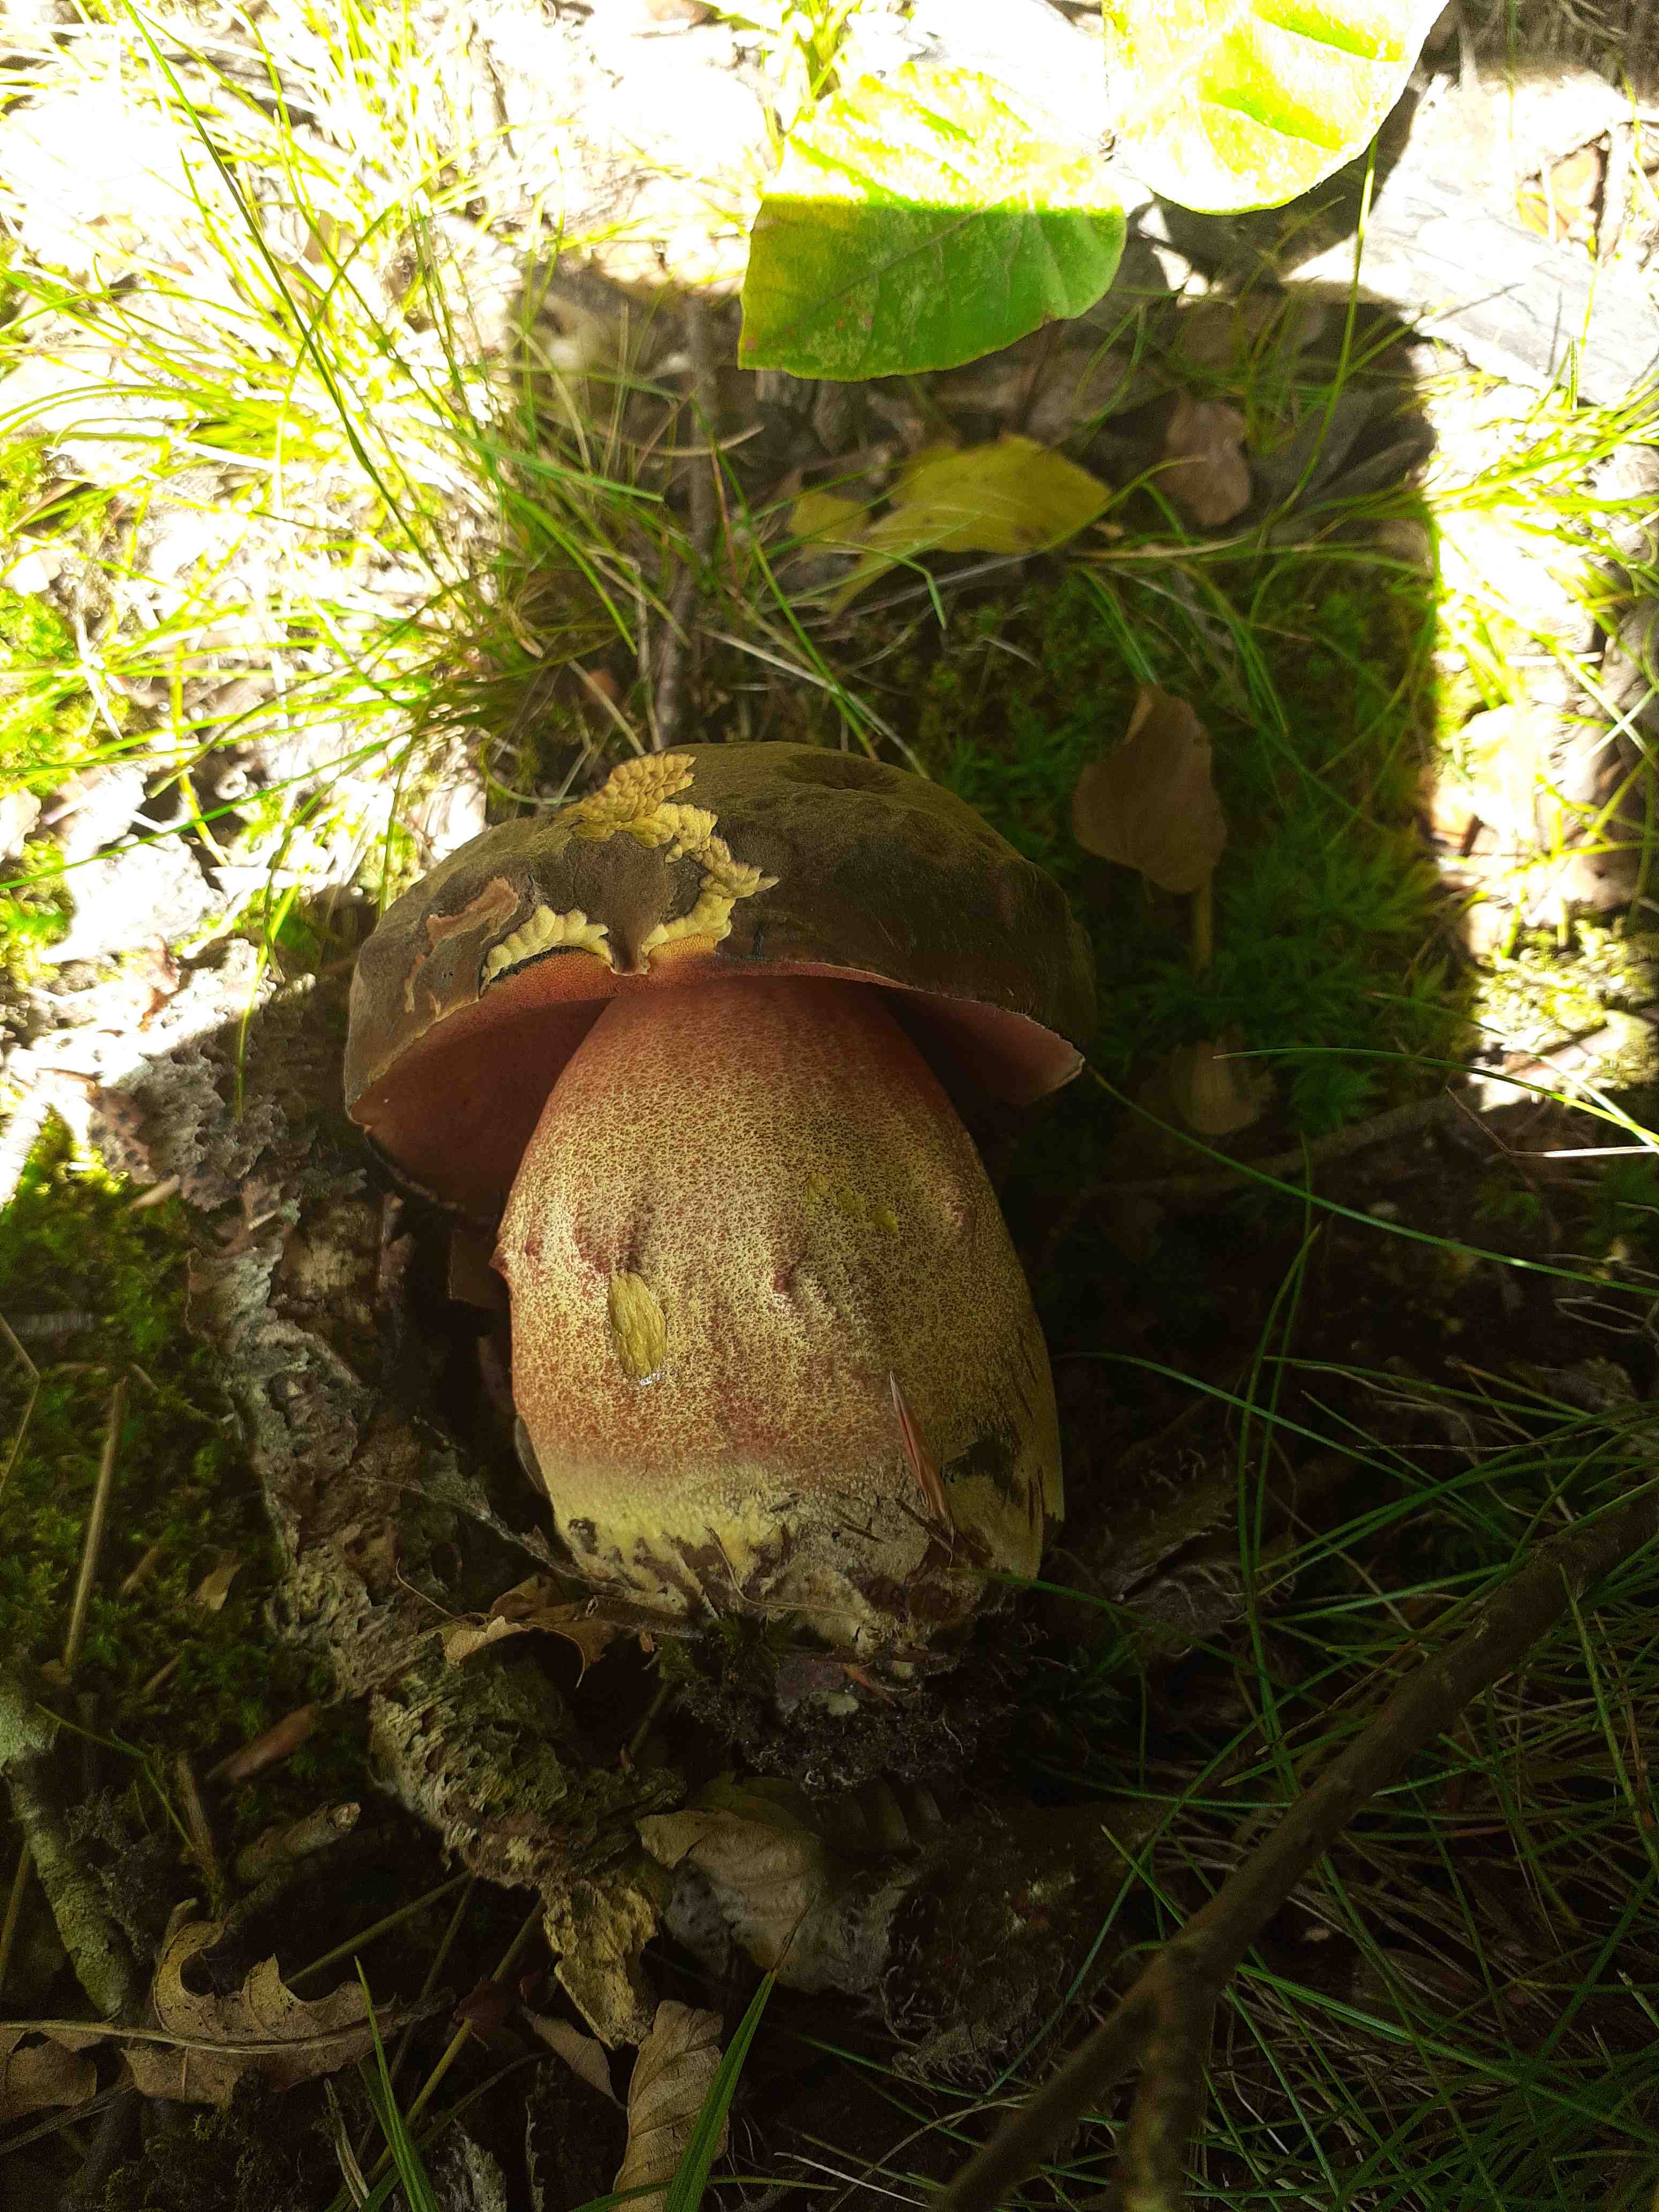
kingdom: Fungi
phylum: Basidiomycota
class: Agaricomycetes
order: Boletales
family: Boletaceae
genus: Neoboletus
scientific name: Neoboletus erythropus
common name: punktstokket indigorørhat
